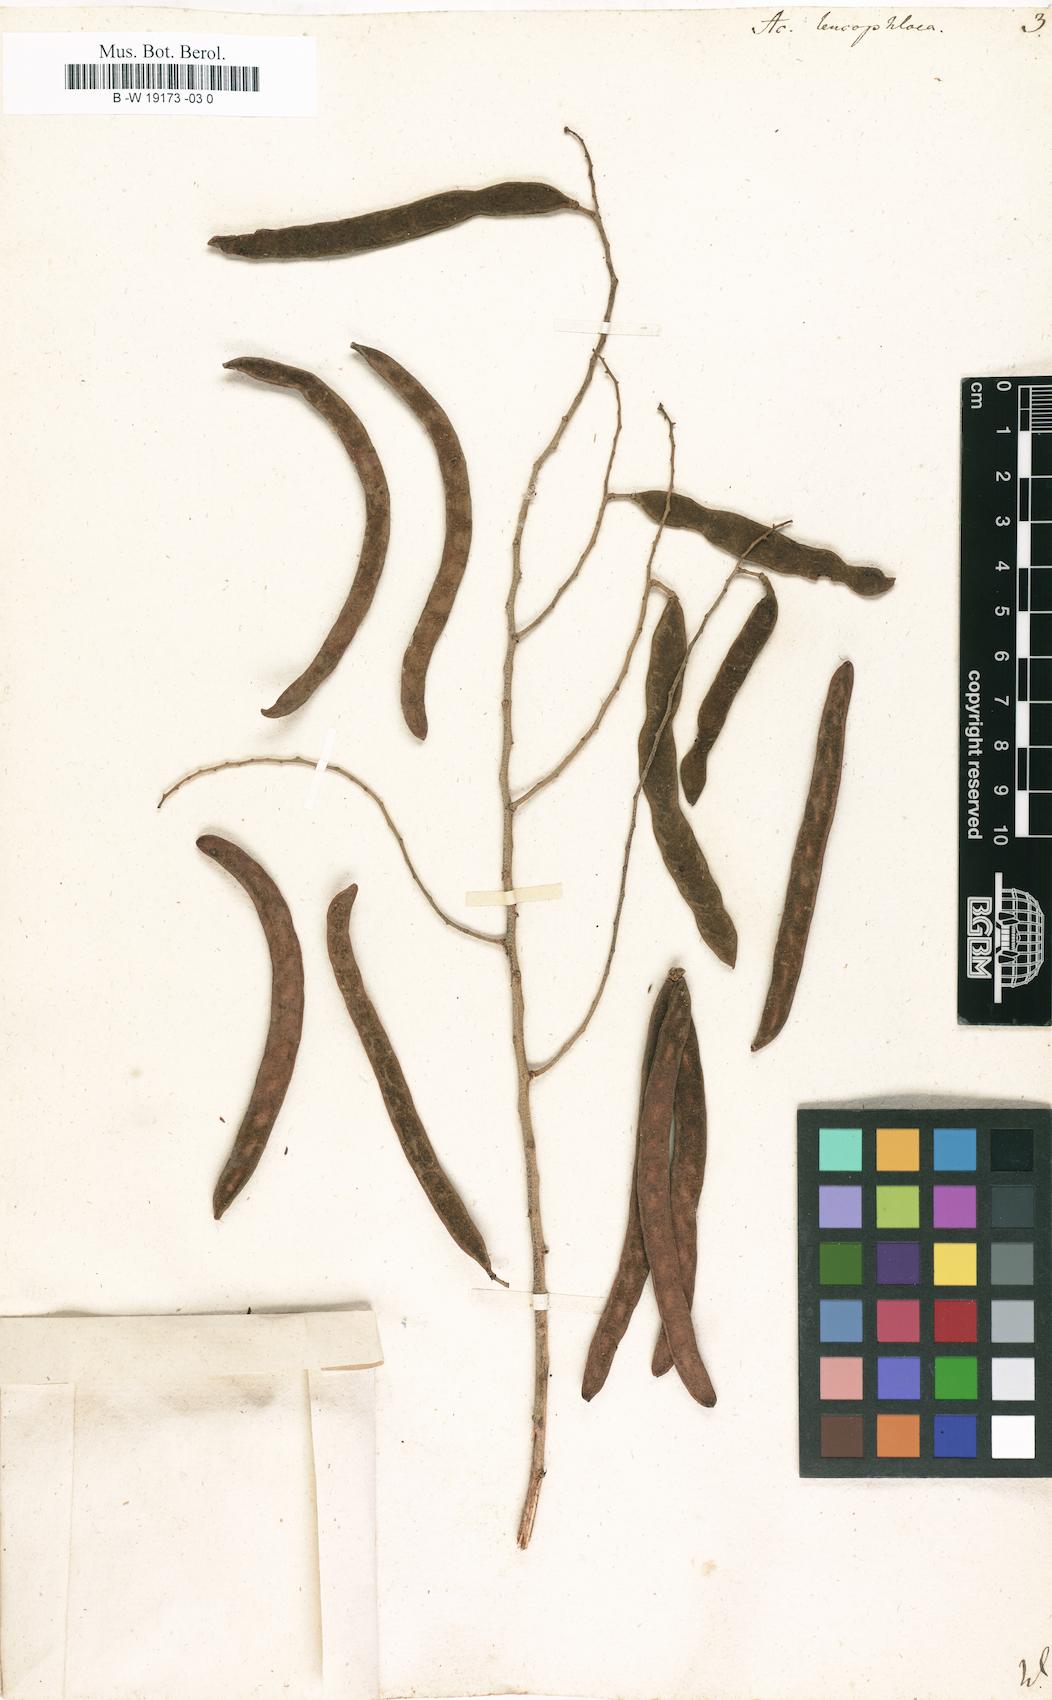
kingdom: Plantae
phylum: Tracheophyta
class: Magnoliopsida
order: Fabales
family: Fabaceae
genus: Vachellia
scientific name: Vachellia leucophloea
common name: Distiller's acacia
